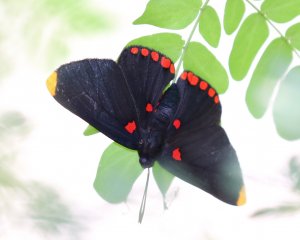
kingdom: Animalia
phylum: Arthropoda
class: Insecta
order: Lepidoptera
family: Lycaenidae
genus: Melanis
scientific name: Melanis pixe
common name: Red-bordered Pixie
